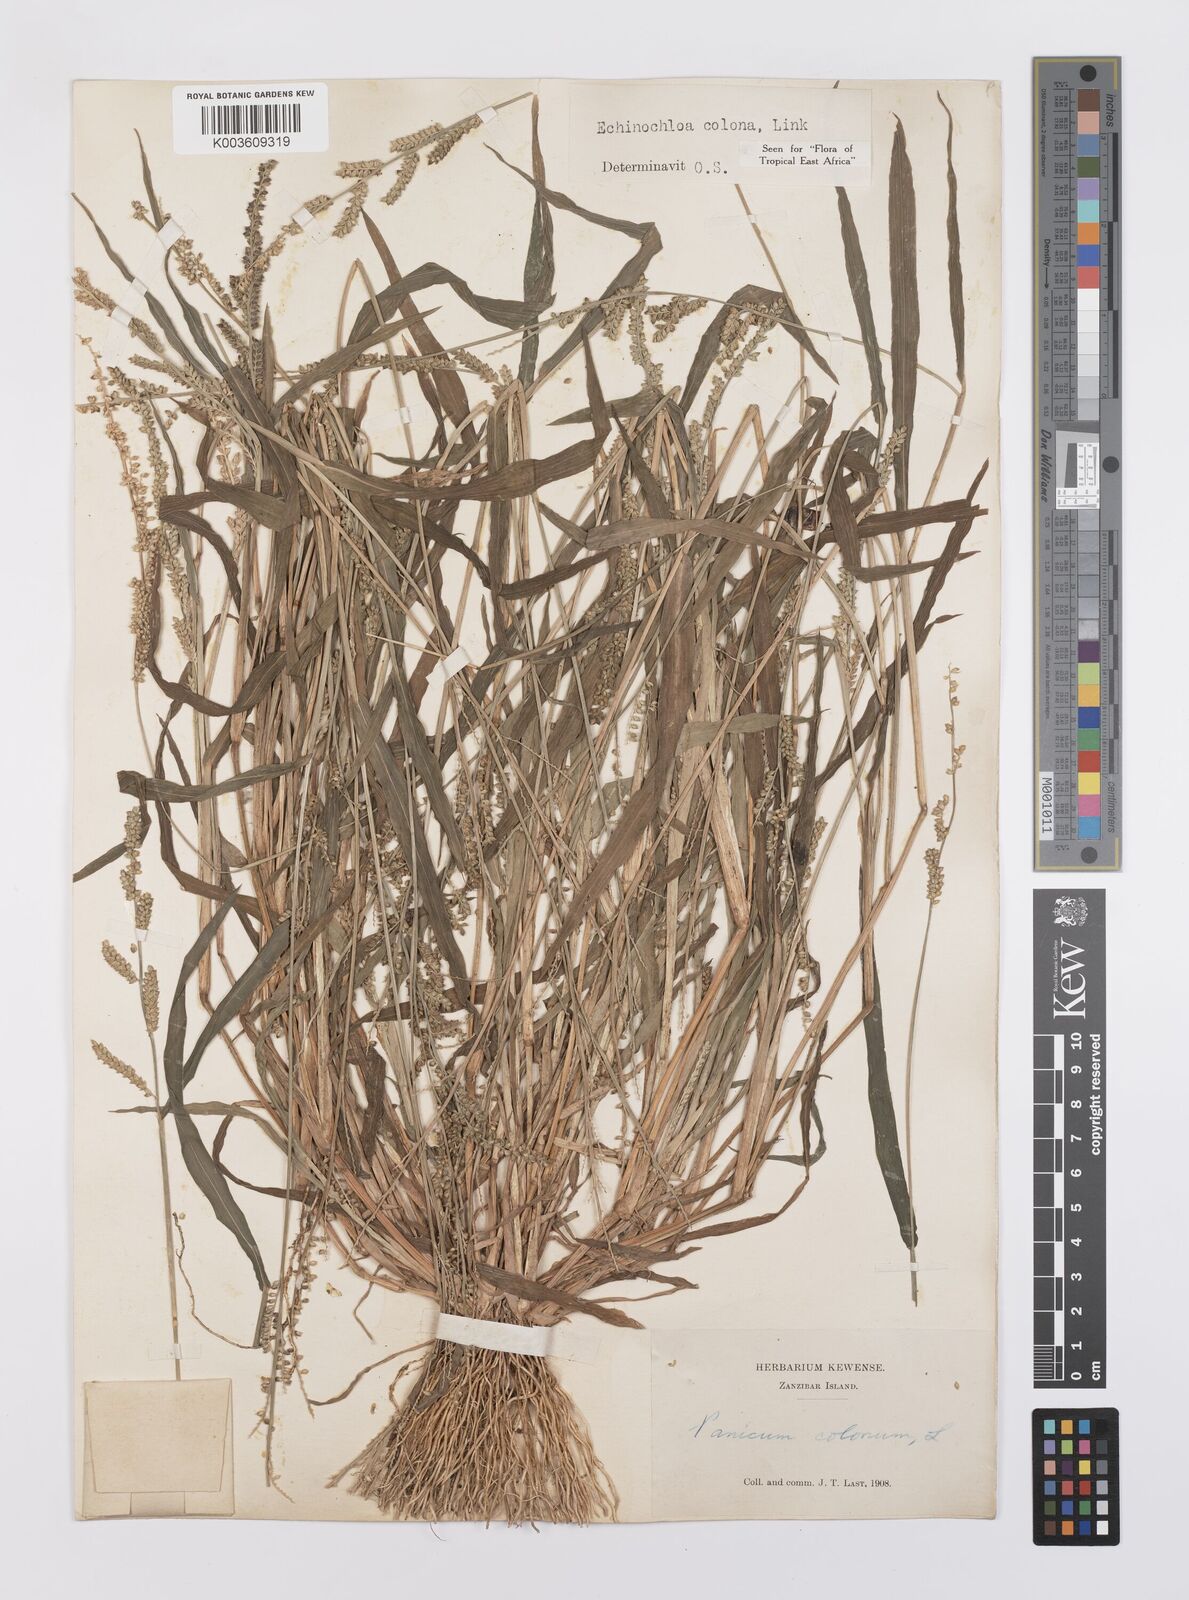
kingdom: Plantae
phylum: Tracheophyta
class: Liliopsida
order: Poales
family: Poaceae
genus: Echinochloa
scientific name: Echinochloa colonum
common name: Jungle rice
